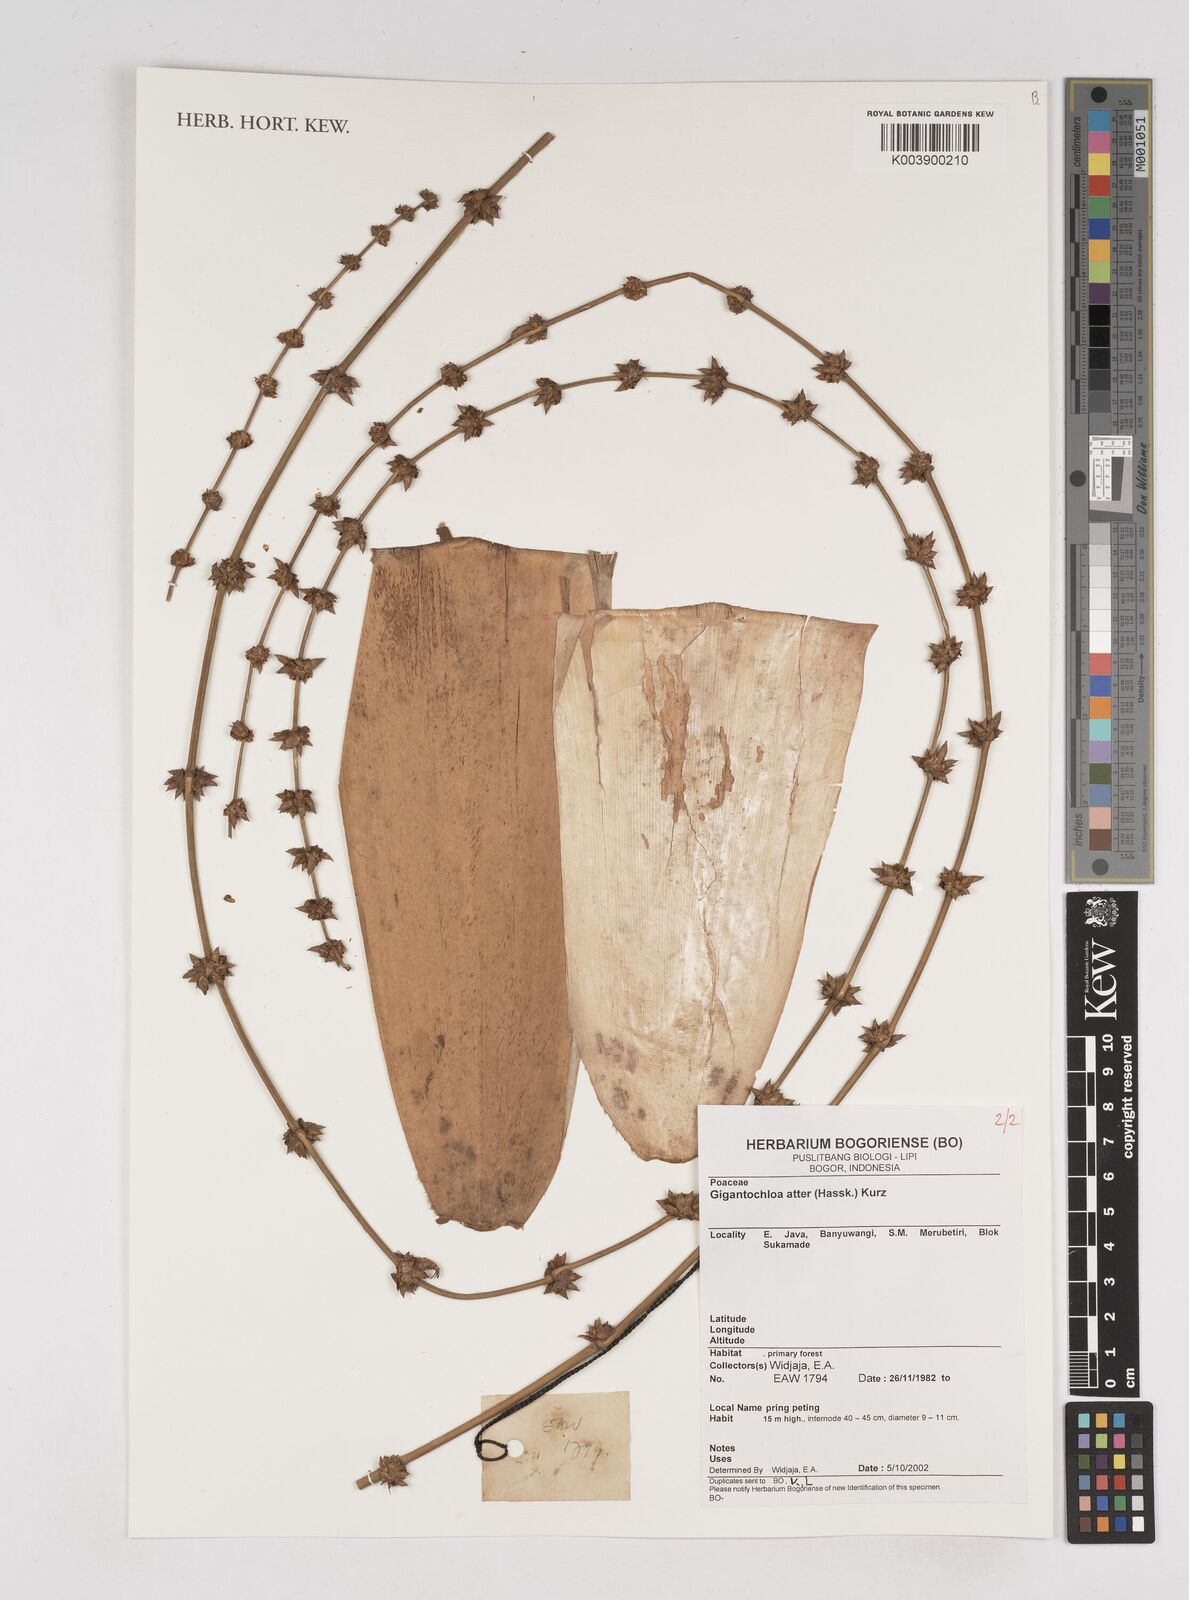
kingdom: Plantae
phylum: Tracheophyta
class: Liliopsida
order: Poales
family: Poaceae
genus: Gigantochloa
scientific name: Gigantochloa atter
